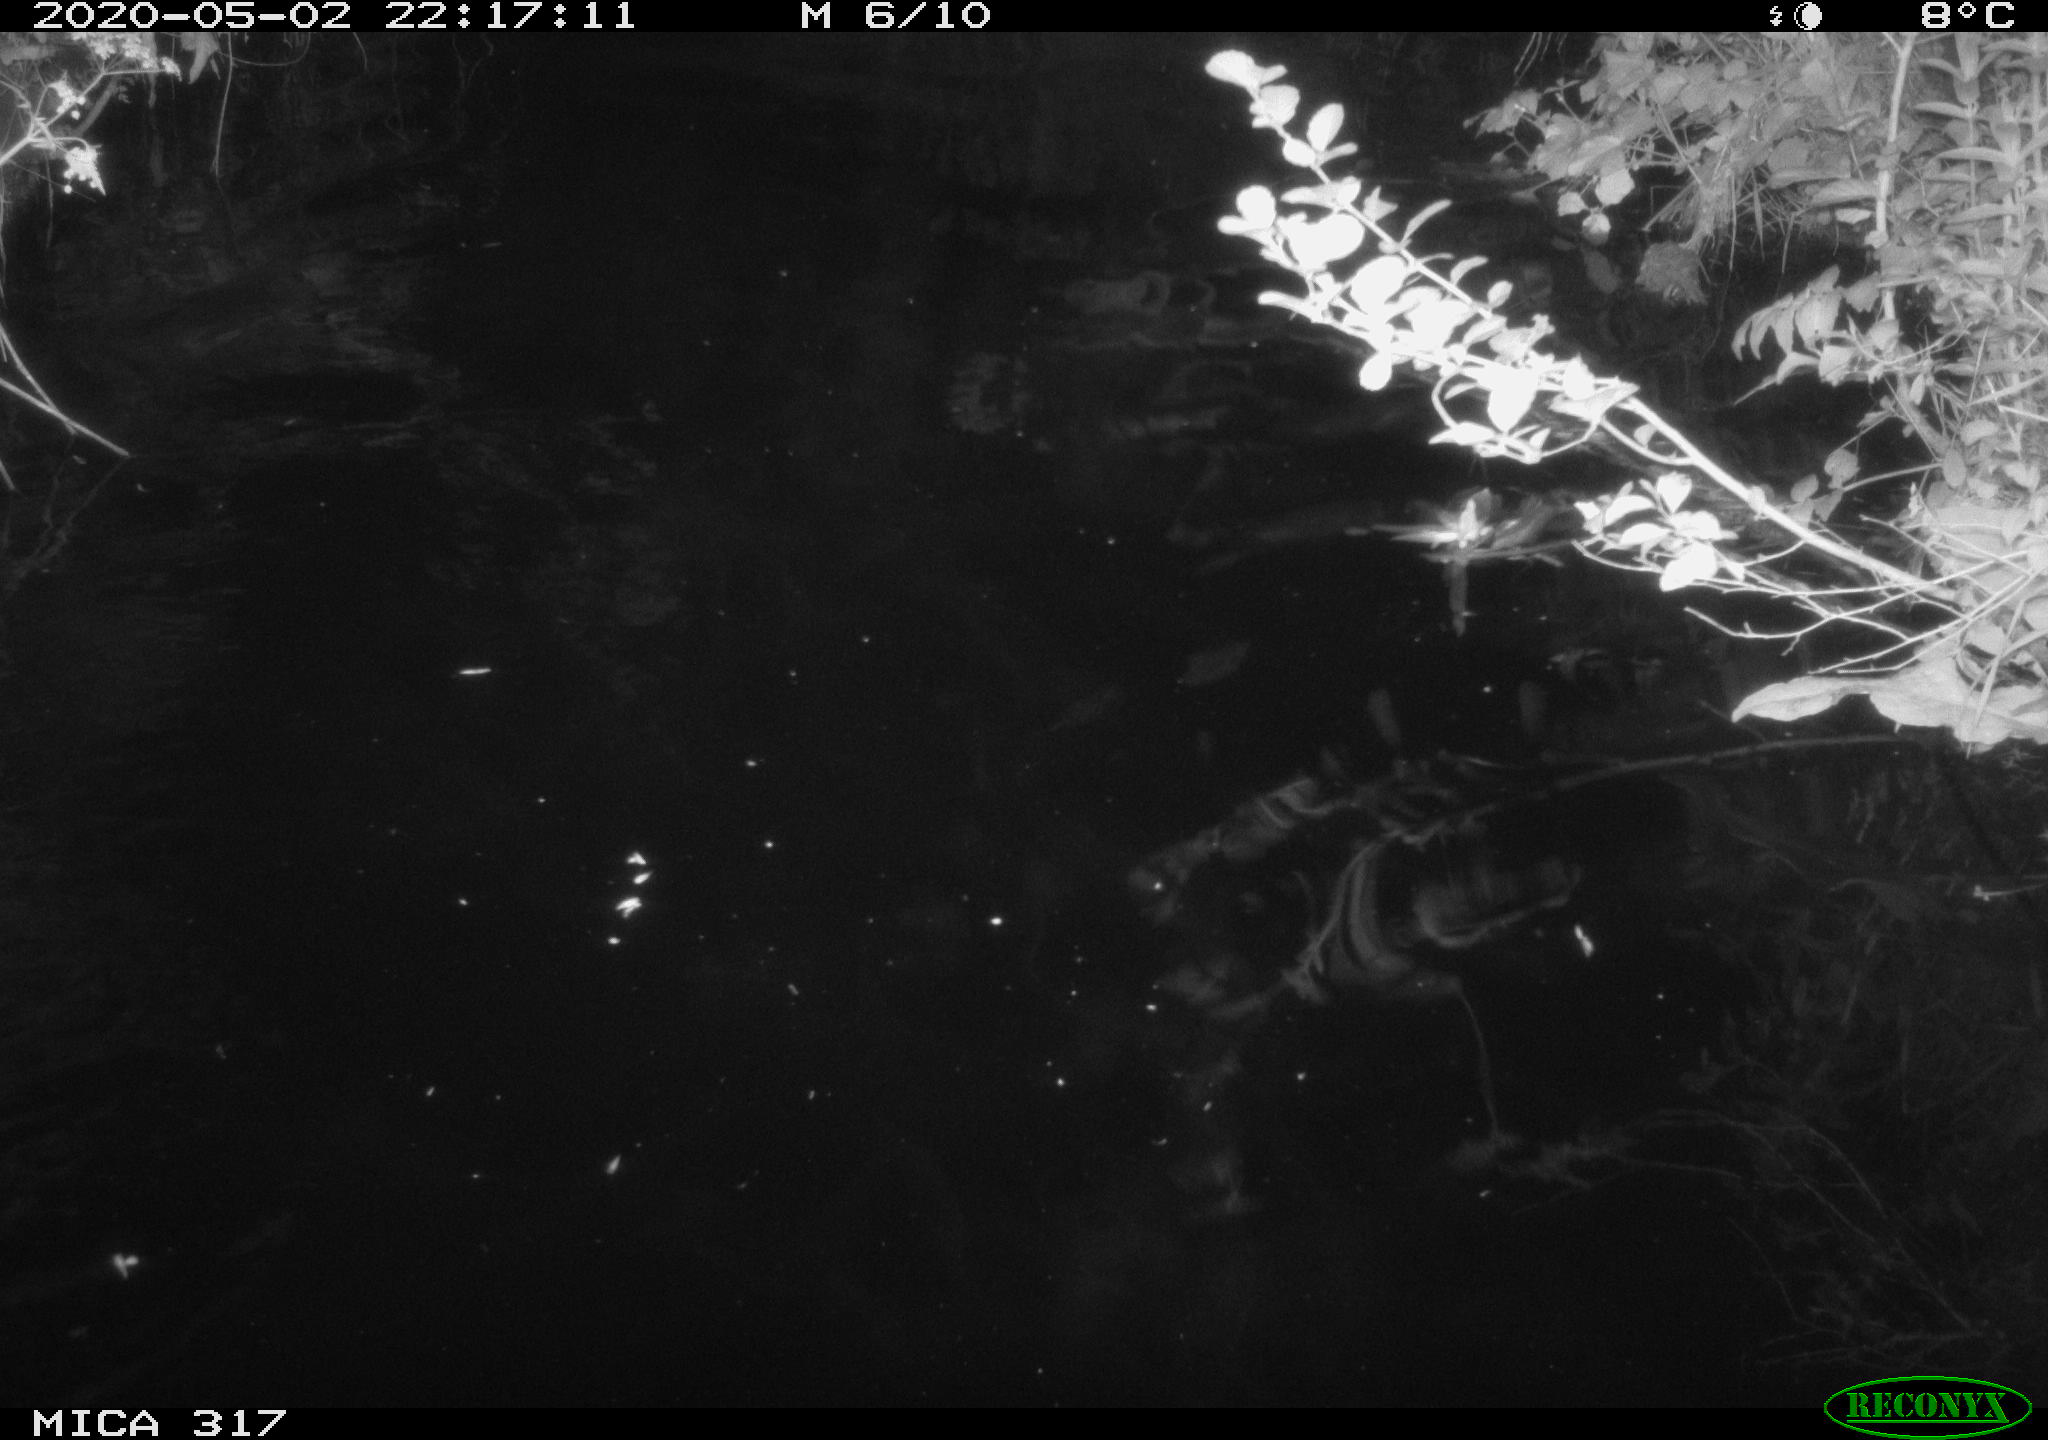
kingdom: Animalia
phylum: Chordata
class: Aves
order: Anseriformes
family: Anatidae
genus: Anas
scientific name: Anas platyrhynchos
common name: Mallard
